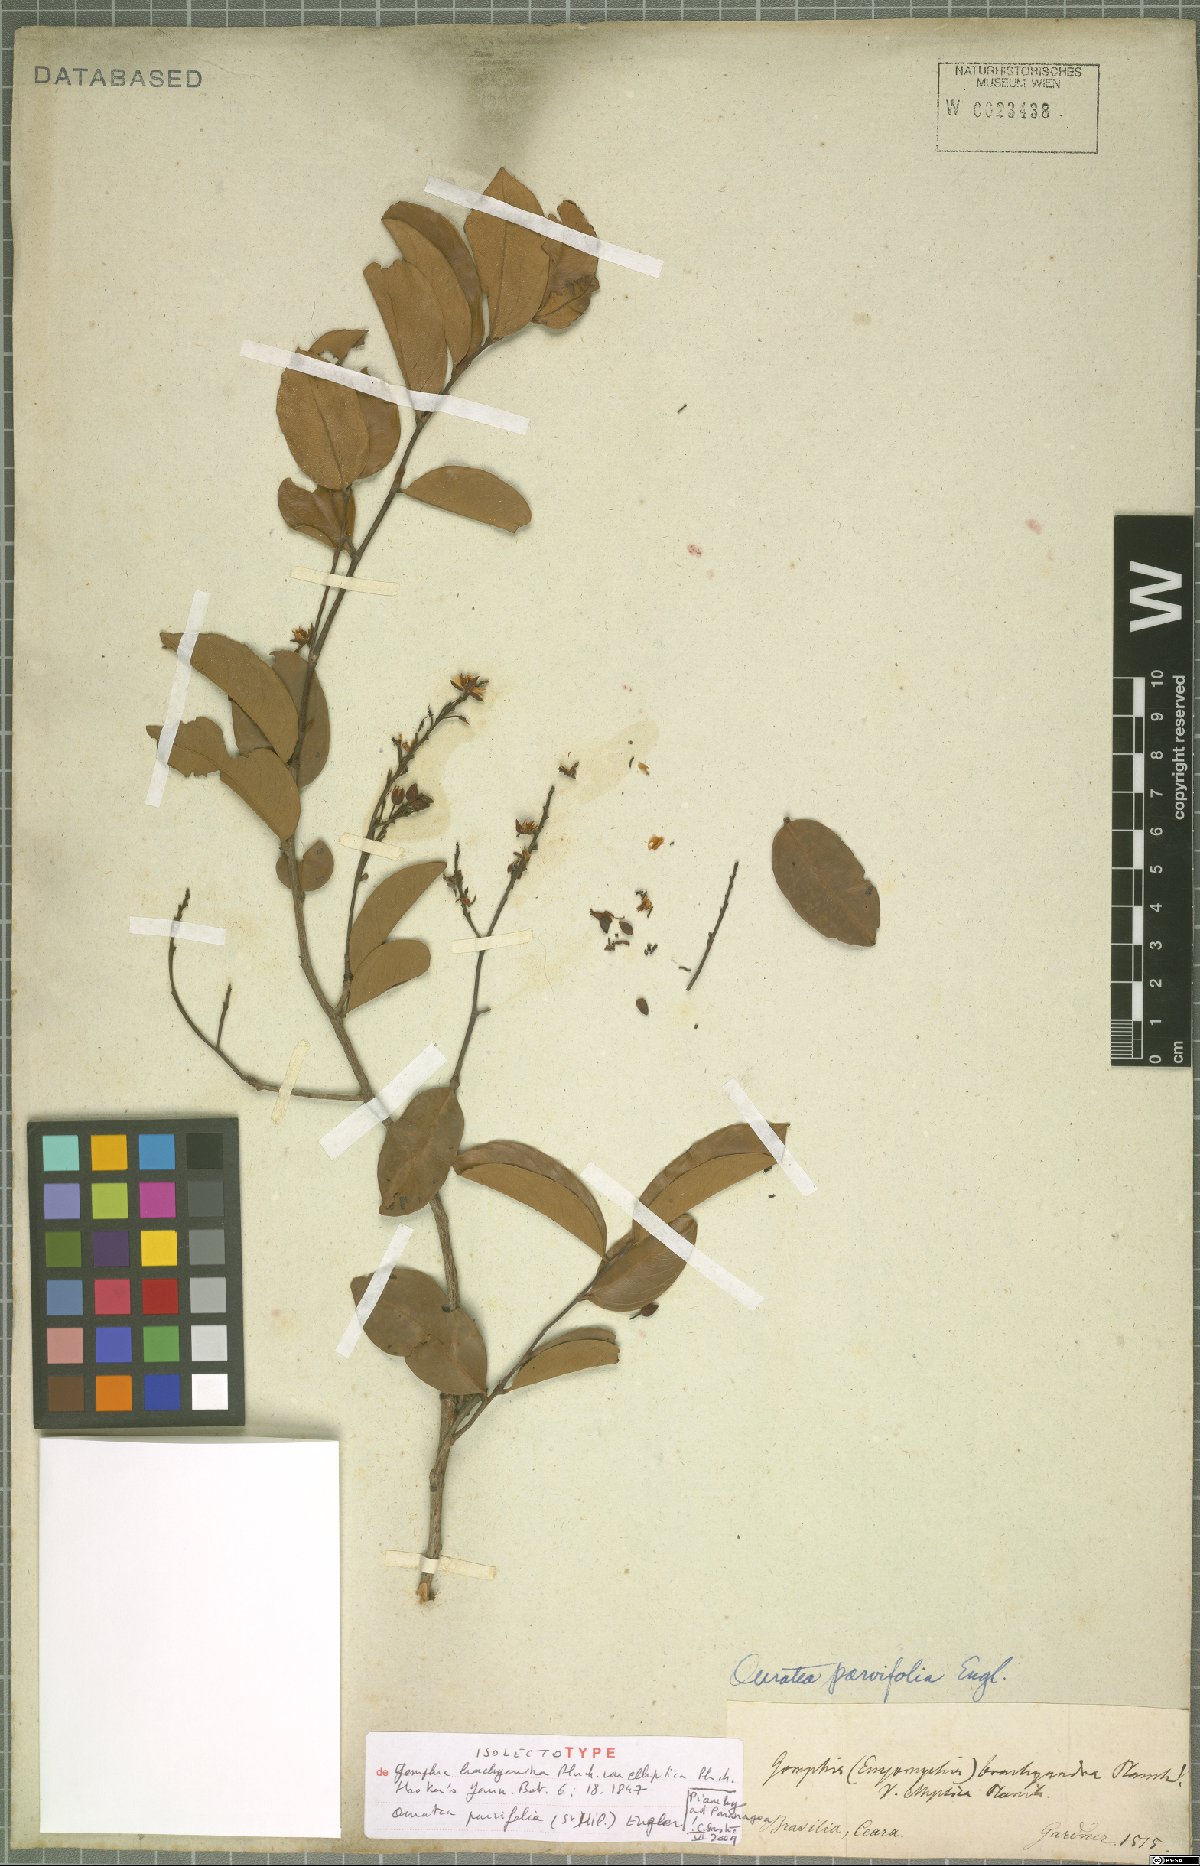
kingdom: Plantae
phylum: Tracheophyta
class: Magnoliopsida
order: Malpighiales
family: Ochnaceae
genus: Ouratea
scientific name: Ouratea parvifolia
